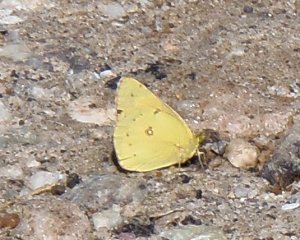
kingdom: Animalia
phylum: Arthropoda
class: Insecta
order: Lepidoptera
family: Pieridae
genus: Colias
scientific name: Colias eurytheme
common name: Orange Sulphur
